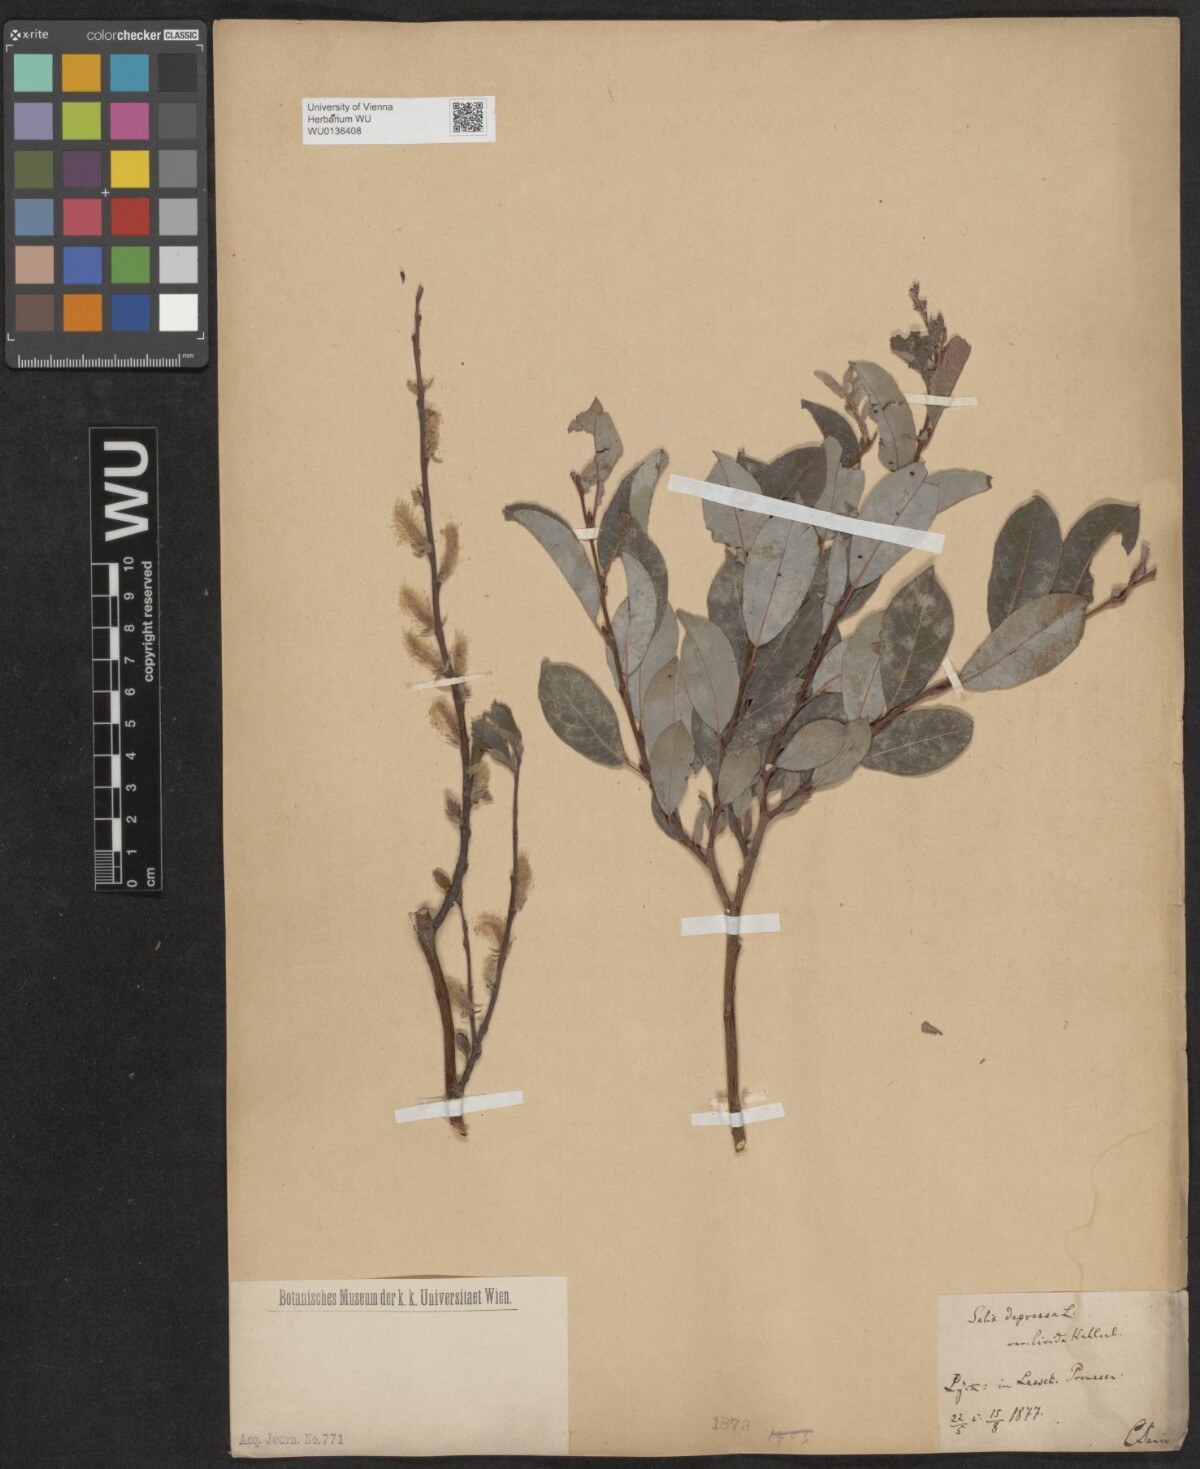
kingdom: Plantae
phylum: Tracheophyta
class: Magnoliopsida
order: Malpighiales
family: Salicaceae
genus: Salix
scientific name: Salix lanata
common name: Woolly willow
